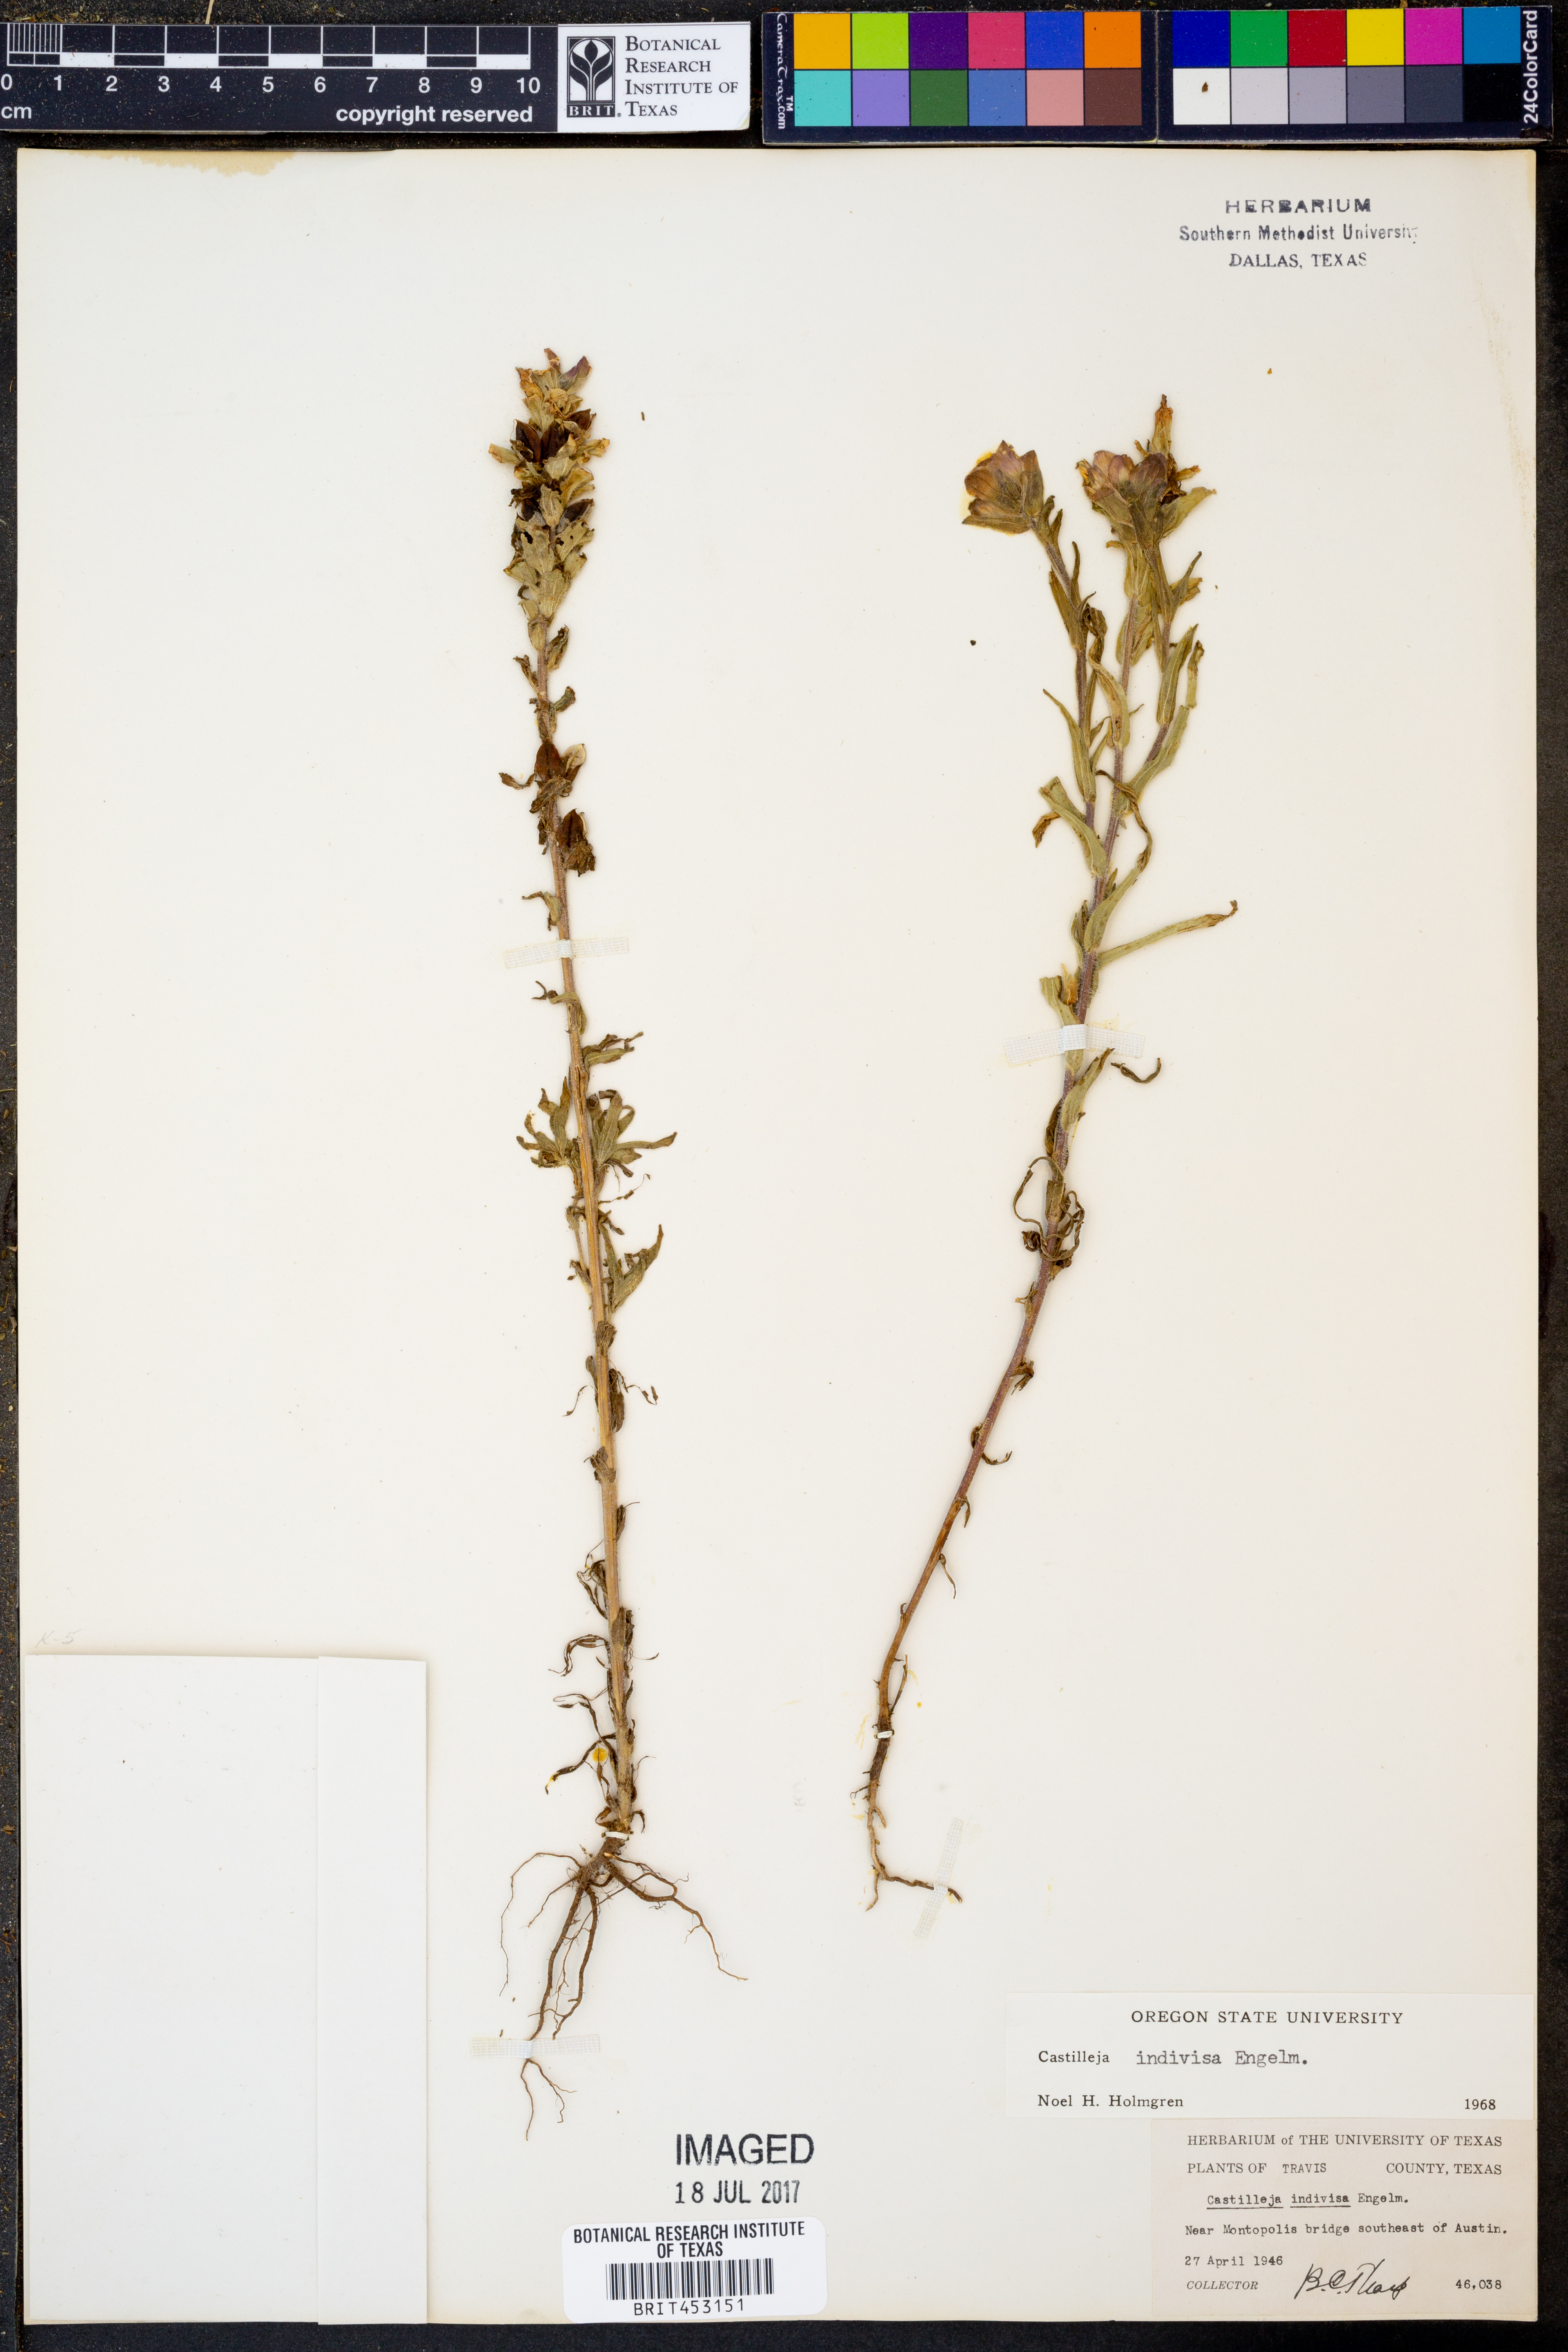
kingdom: Plantae
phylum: Tracheophyta
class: Magnoliopsida
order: Lamiales
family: Orobanchaceae
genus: Castilleja
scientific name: Castilleja indivisa
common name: Texas paintbrush
